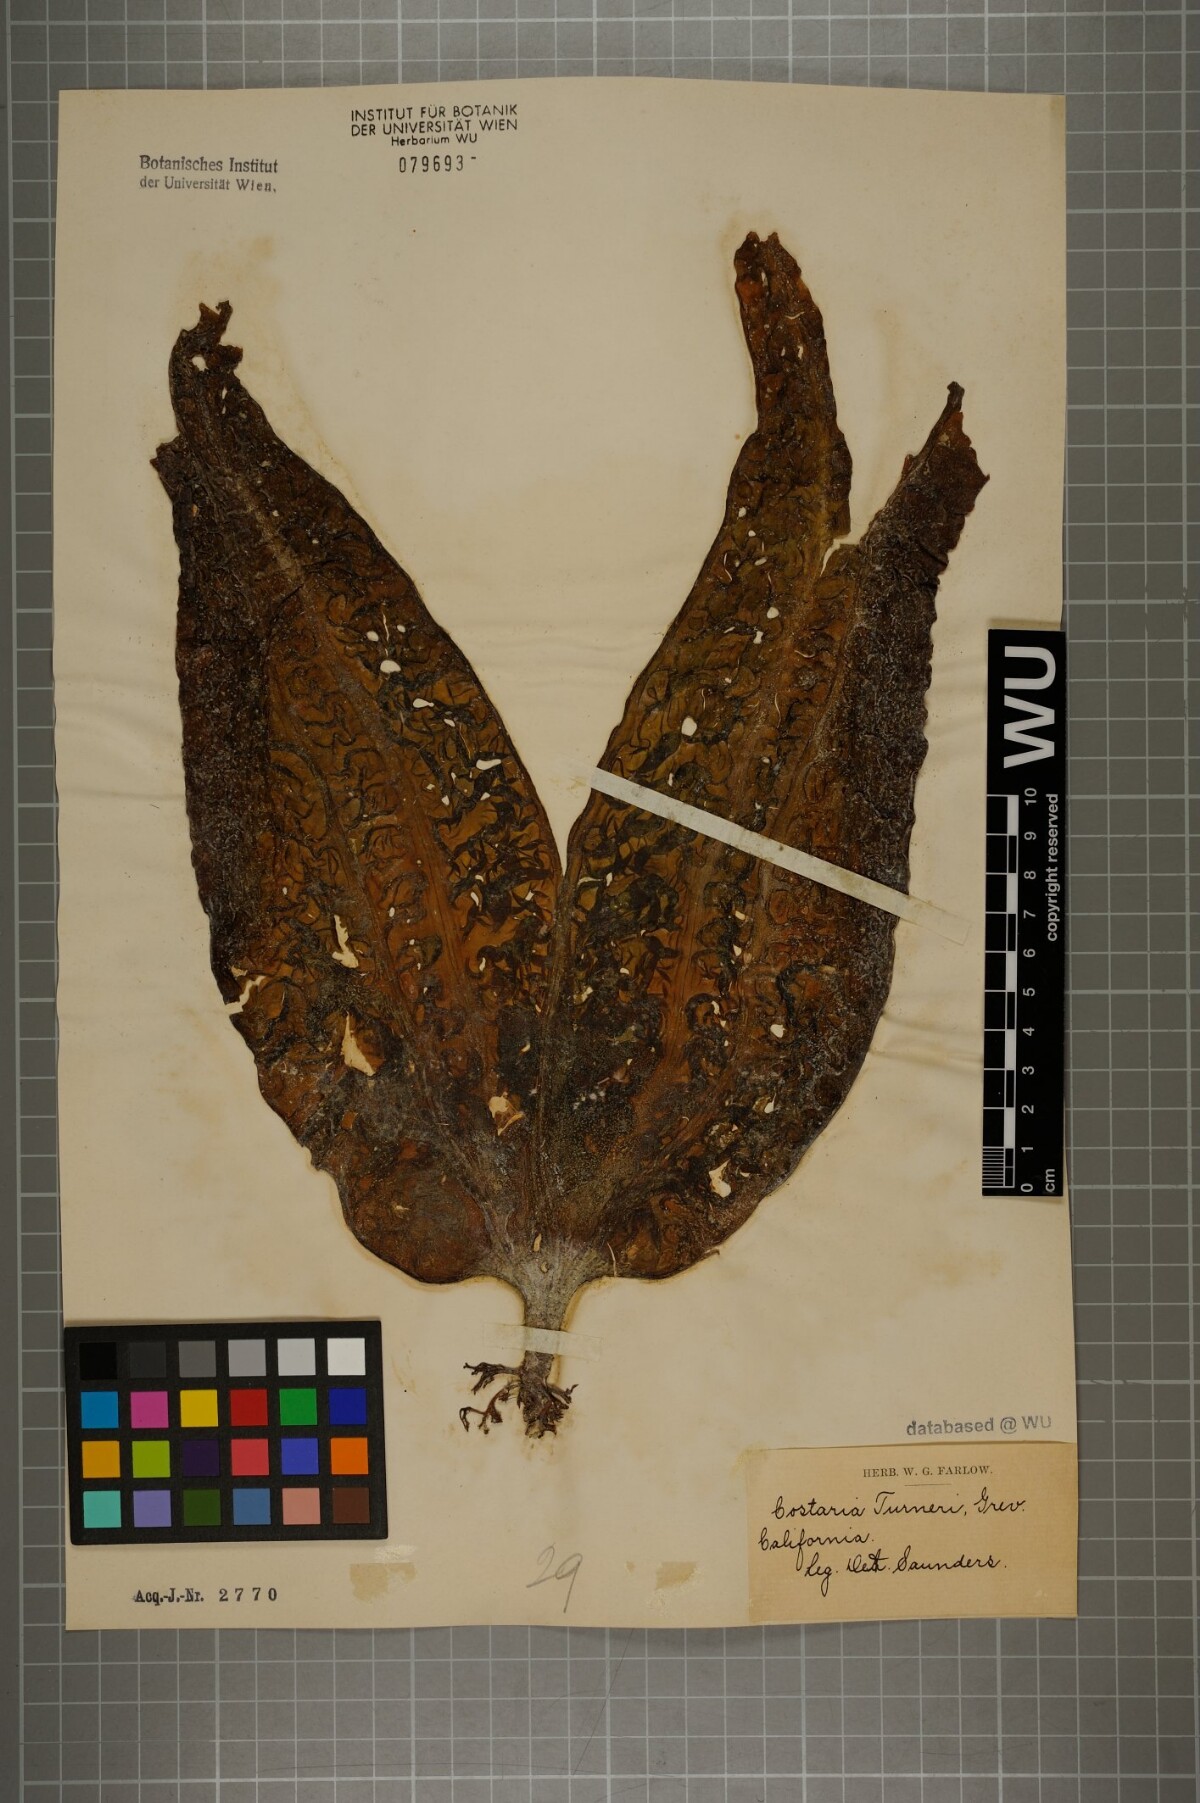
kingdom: Chromista
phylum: Ochrophyta
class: Phaeophyceae
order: Laminariales
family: Costariaceae
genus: Agarum
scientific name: Agarum turneri
